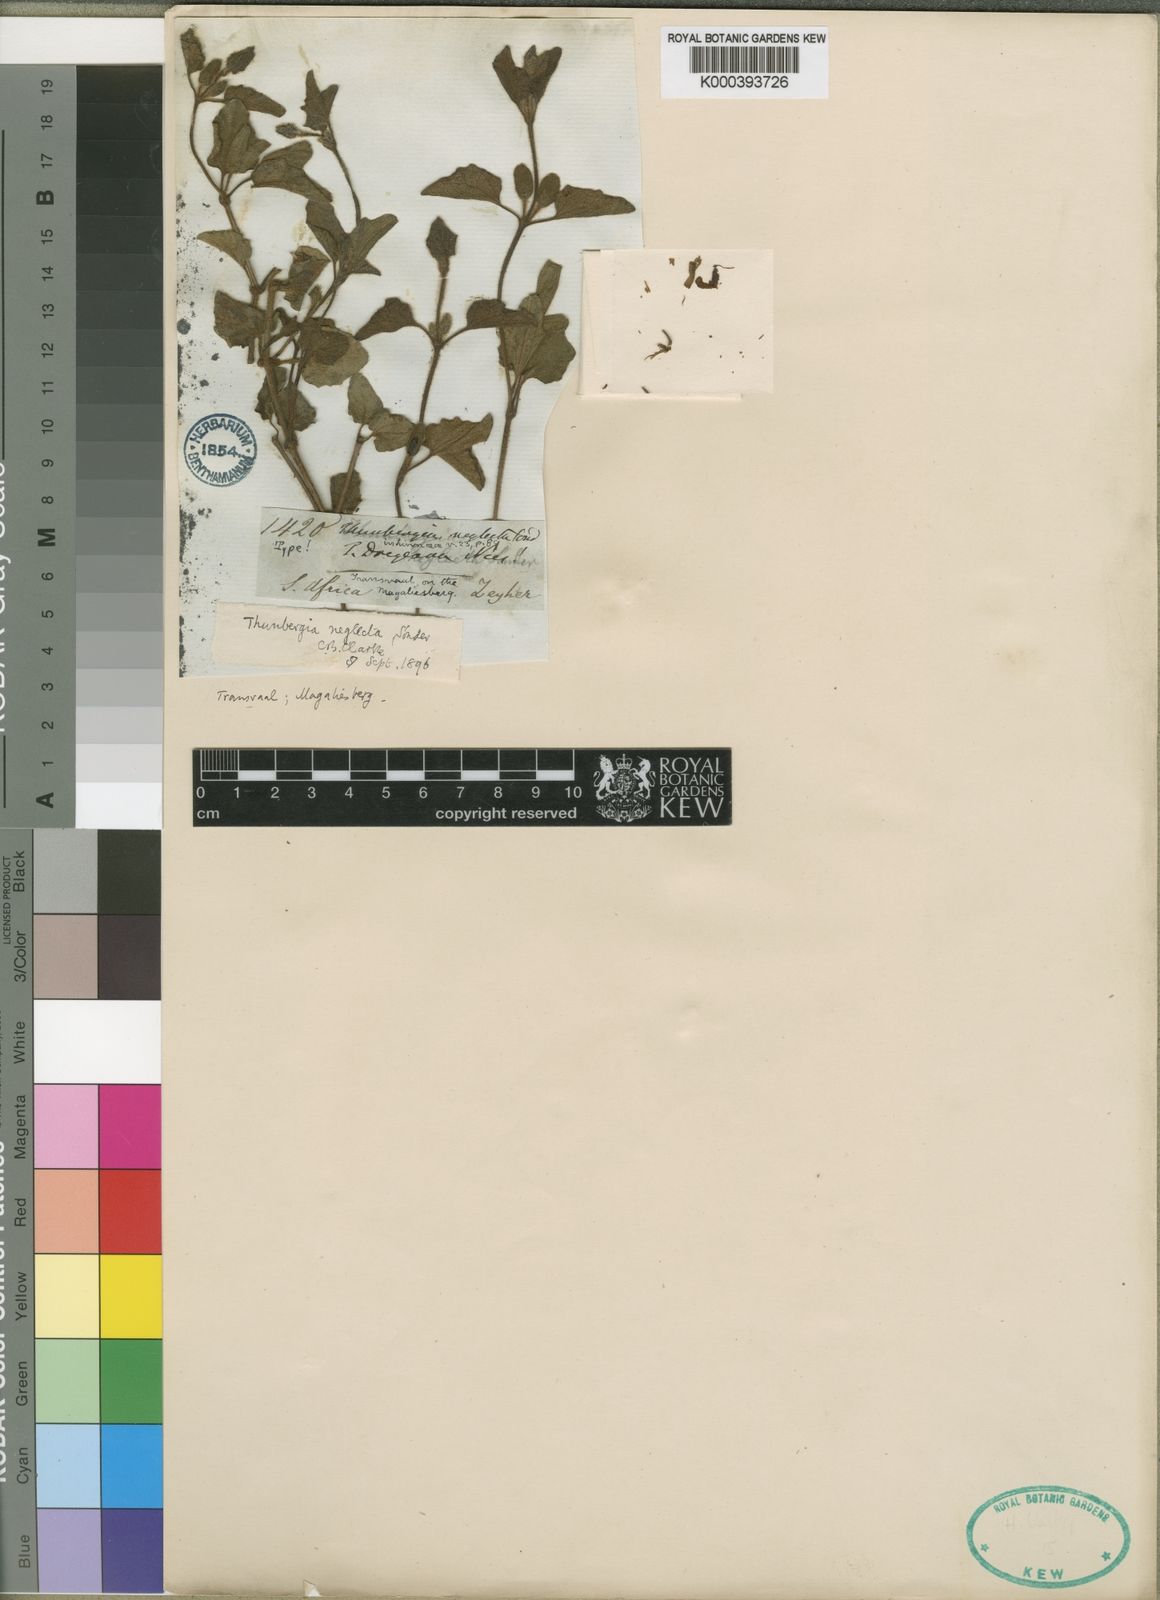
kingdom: Plantae
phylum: Tracheophyta
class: Magnoliopsida
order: Lamiales
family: Acanthaceae
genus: Thunbergia
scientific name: Thunbergia neglecta
